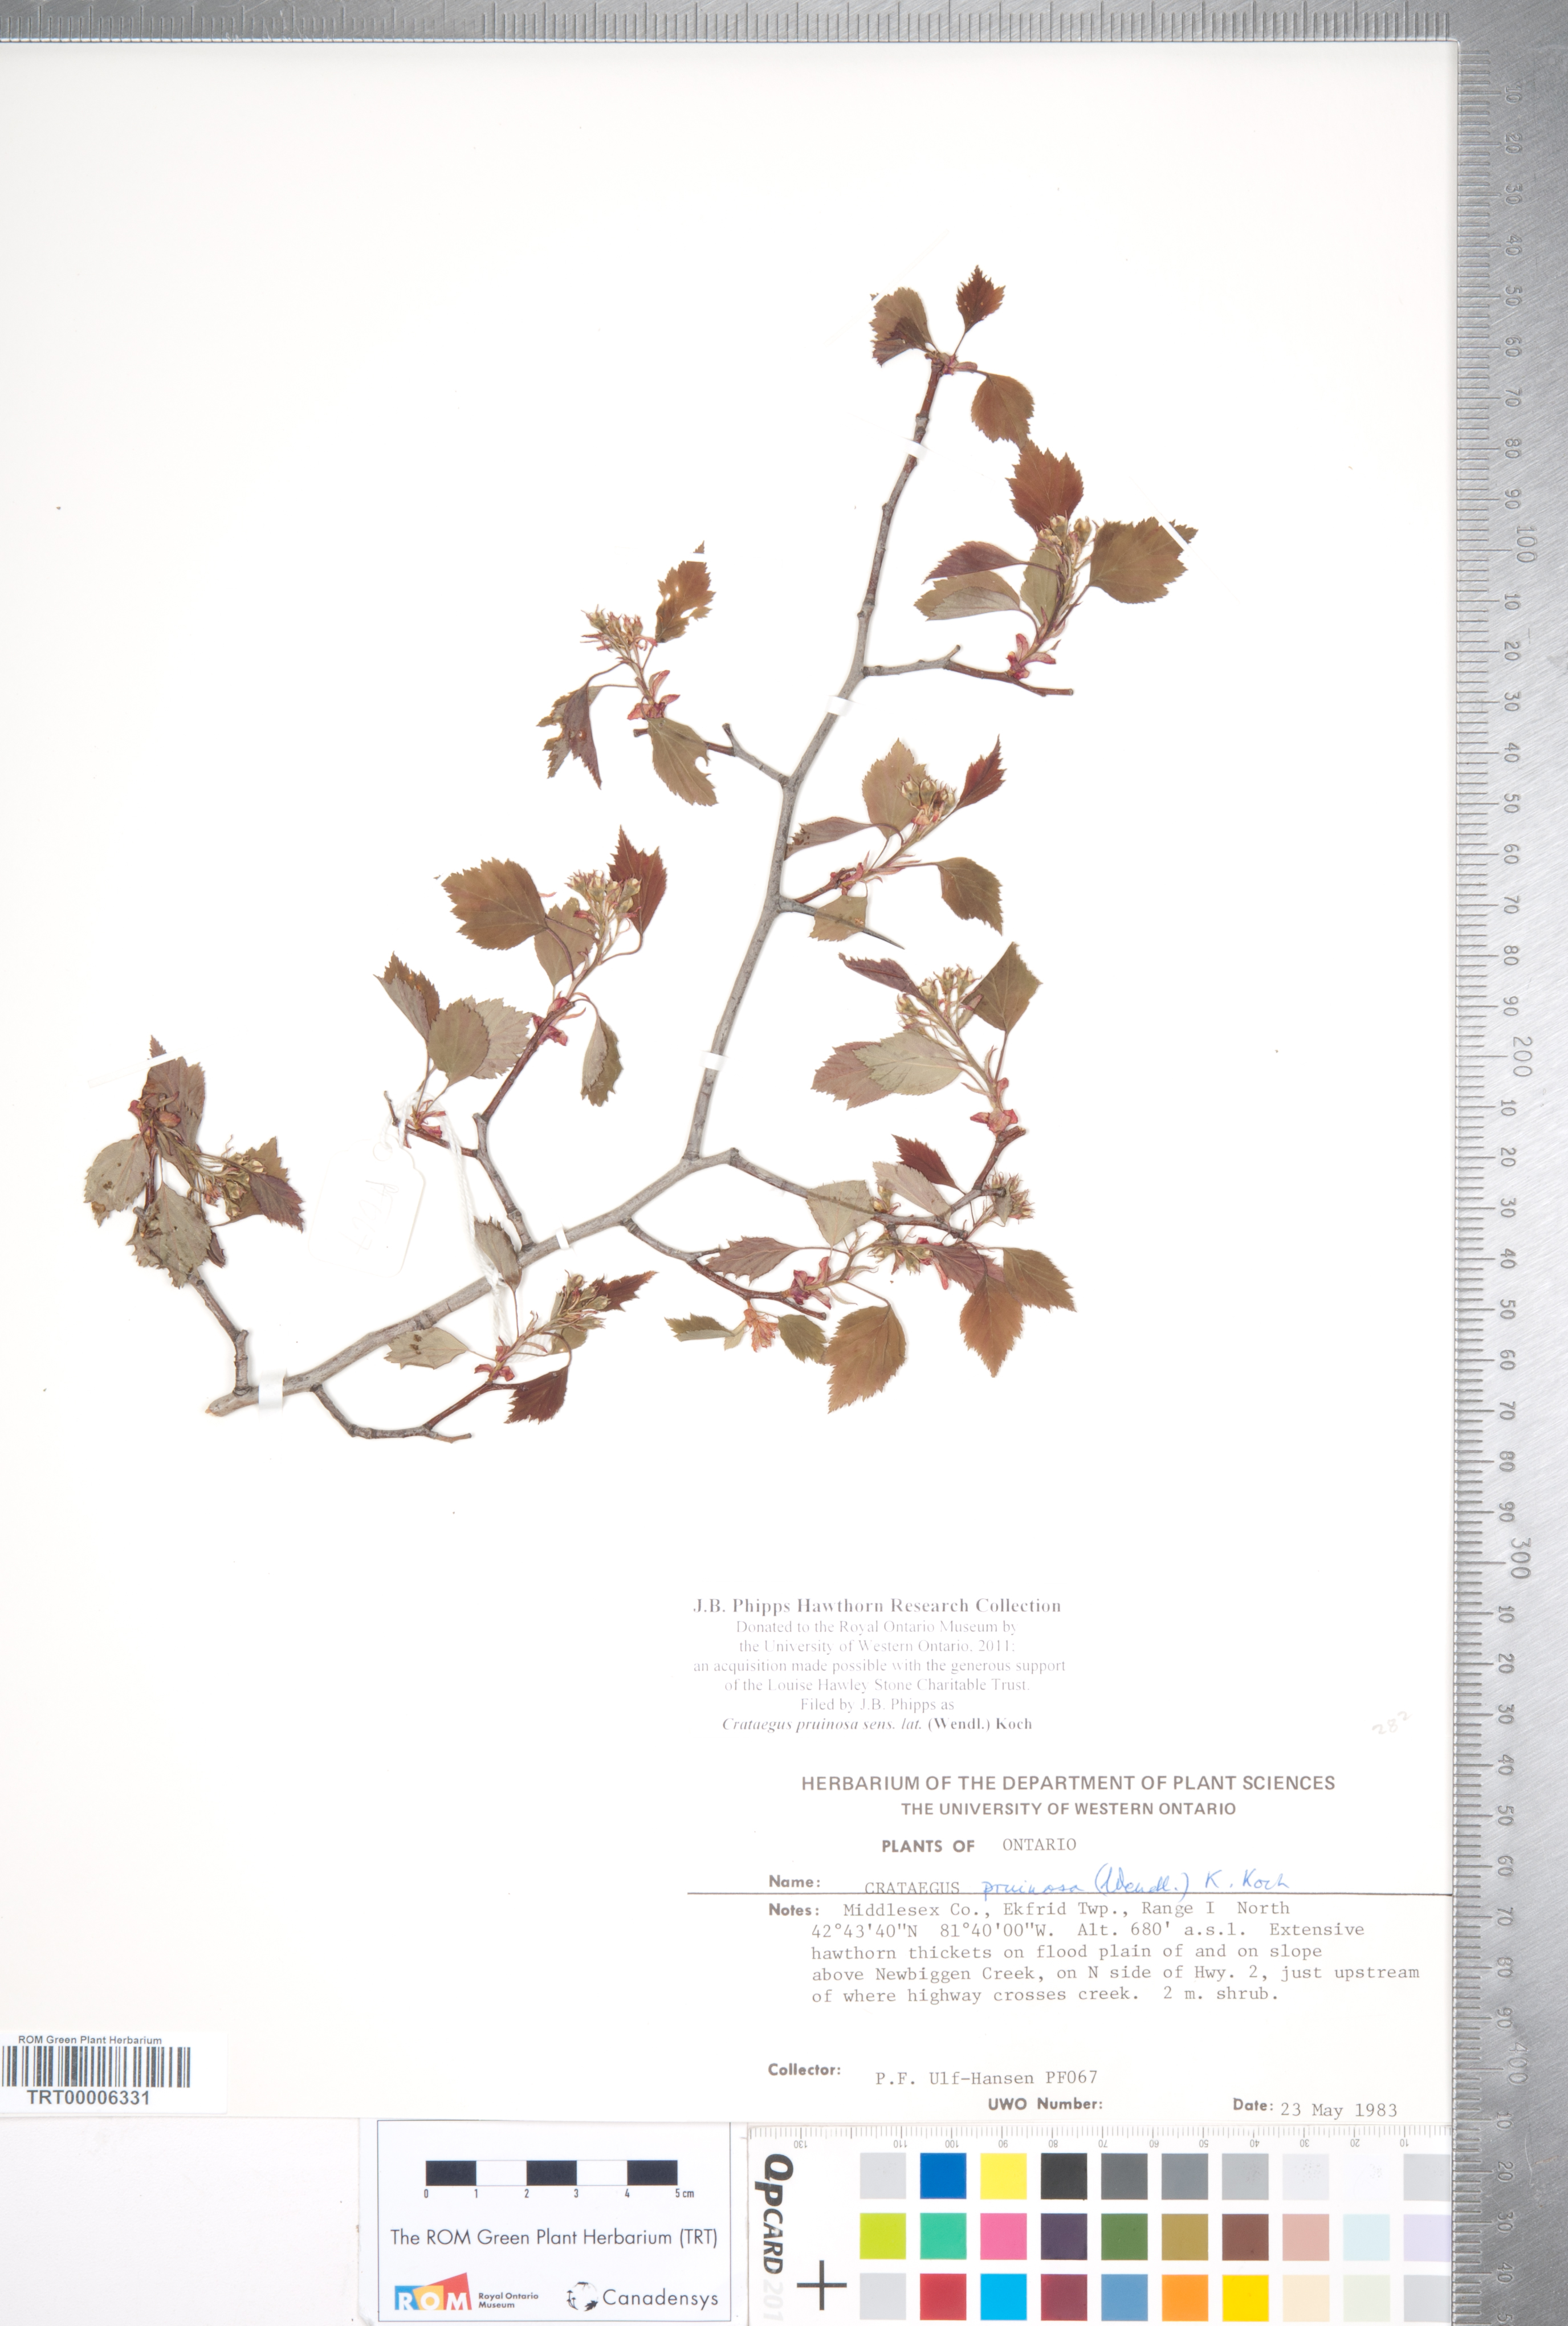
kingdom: Plantae
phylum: Tracheophyta
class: Magnoliopsida
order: Rosales
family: Rosaceae
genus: Crataegus
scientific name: Crataegus pruinosa
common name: Waxy-fruit hawthorn
